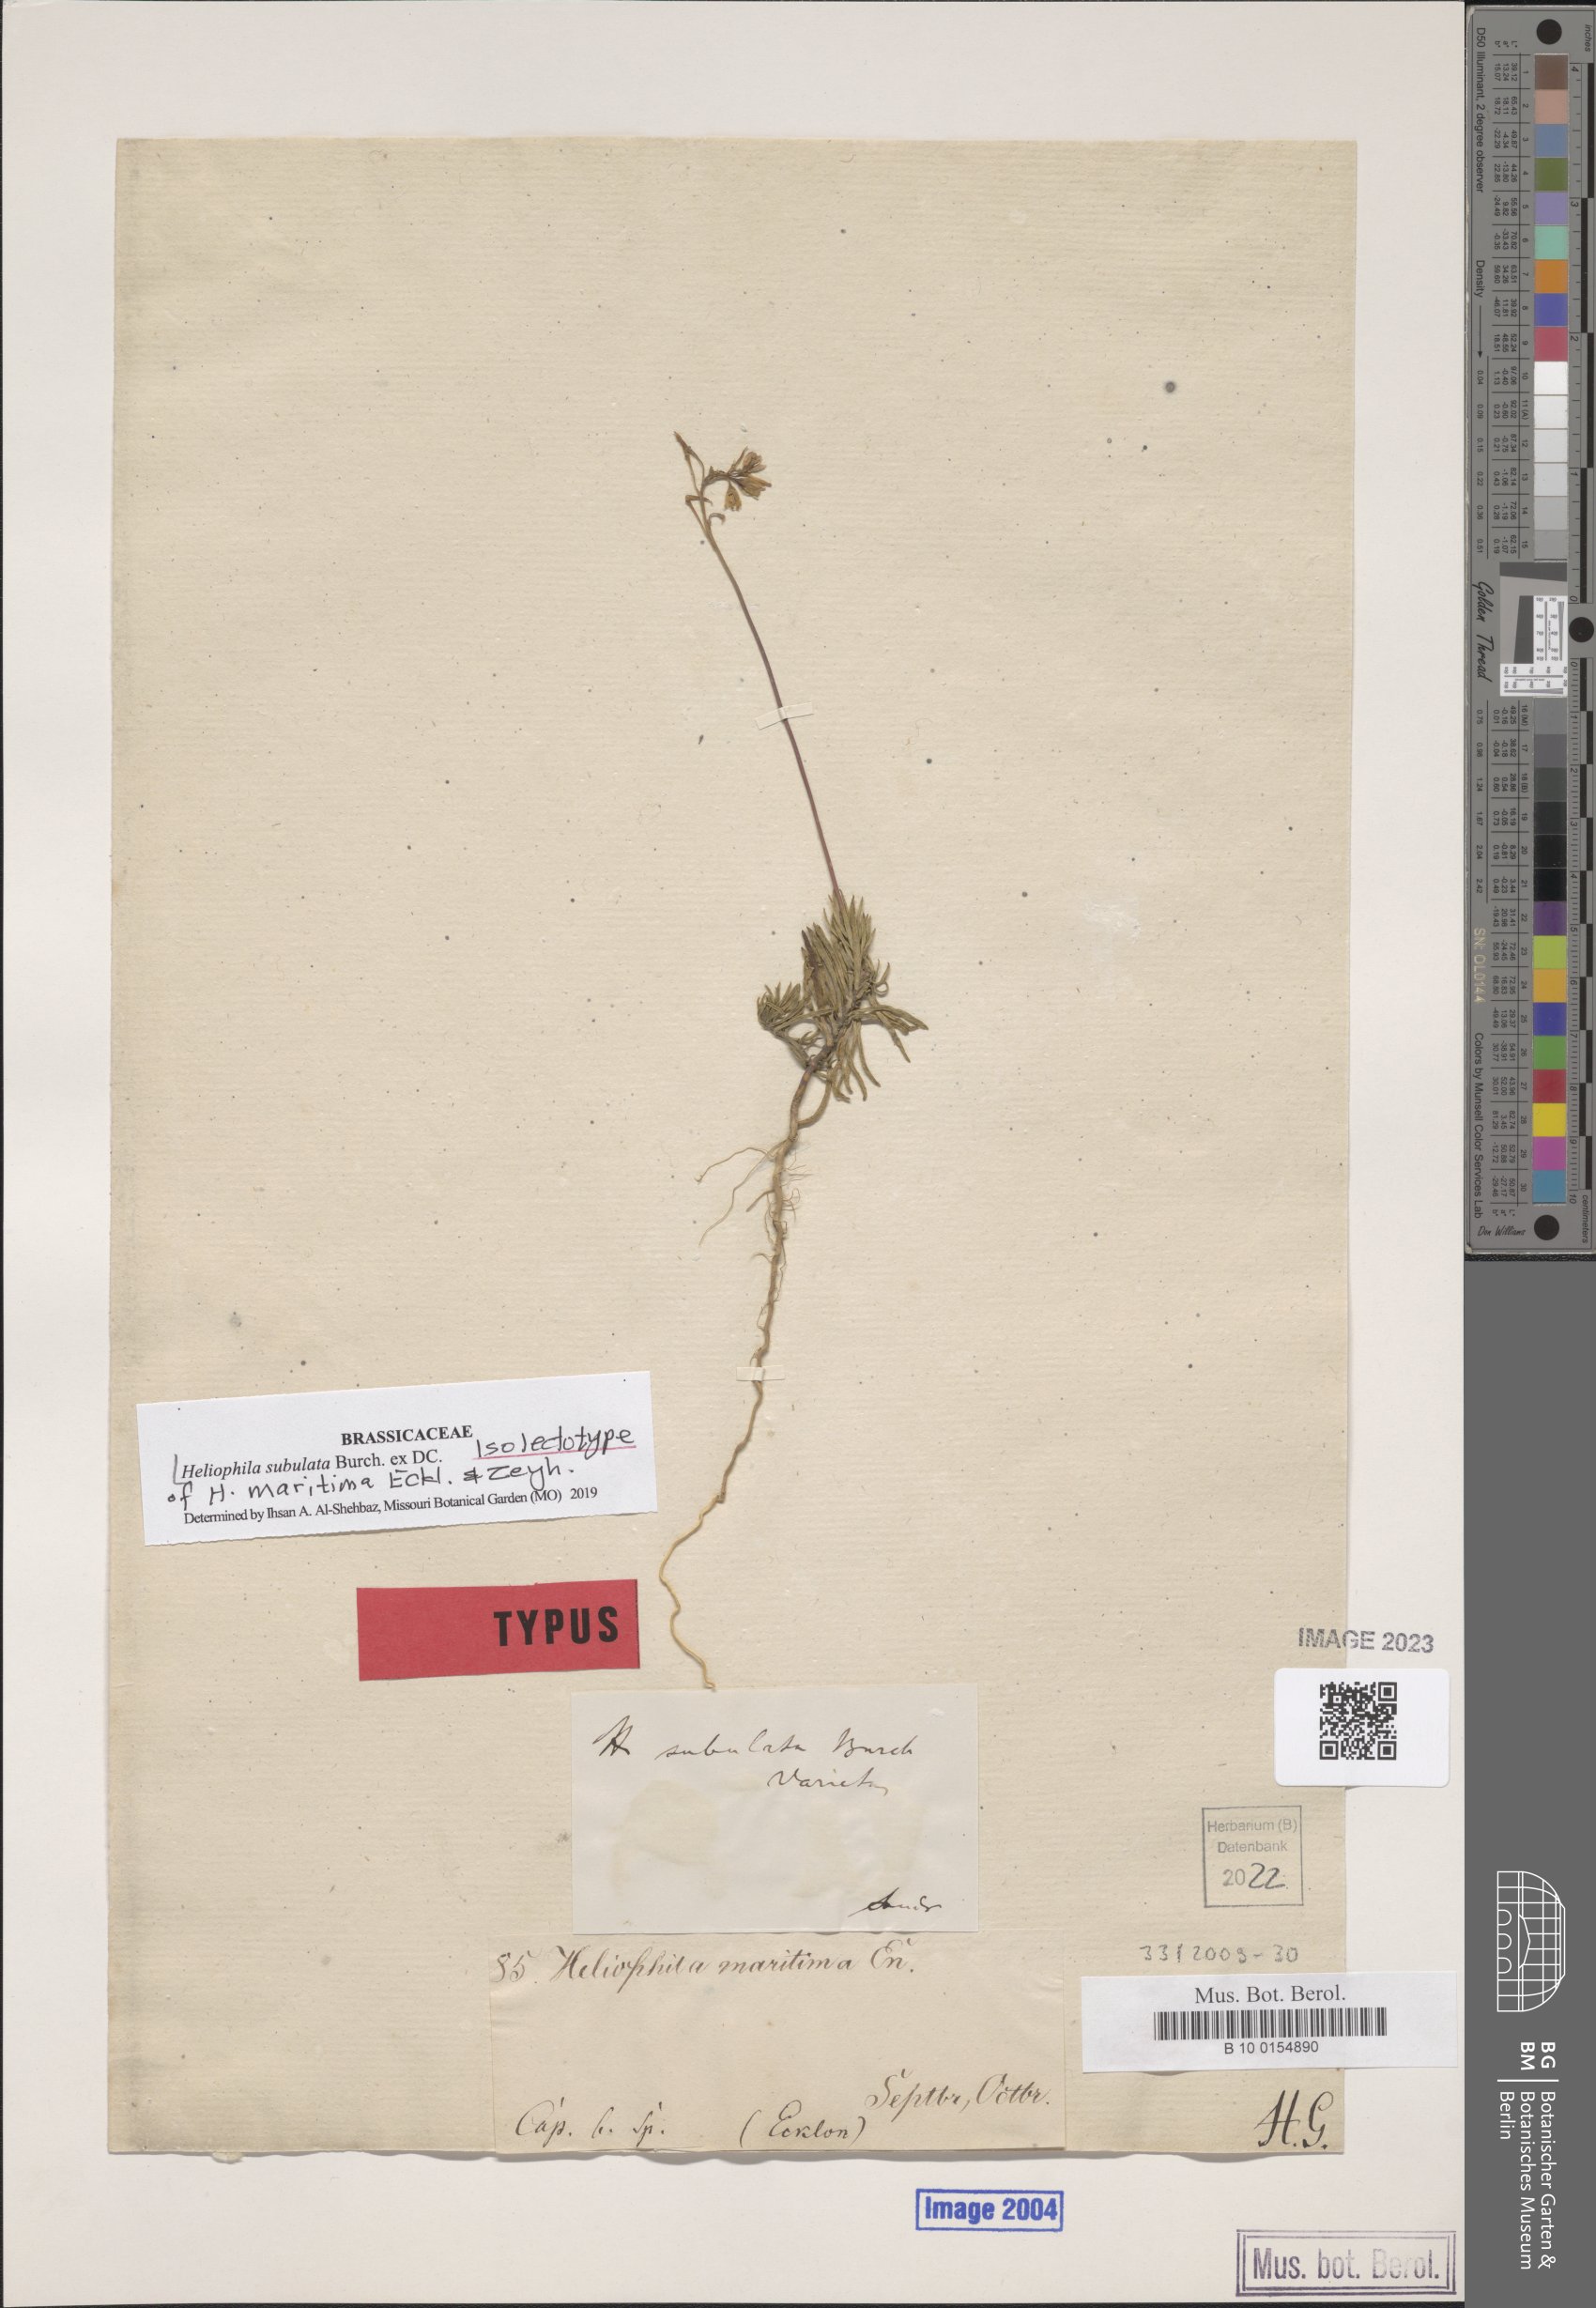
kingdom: Plantae
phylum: Tracheophyta
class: Magnoliopsida
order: Brassicales
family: Brassicaceae
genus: Heliophila
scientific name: Heliophila subulata
